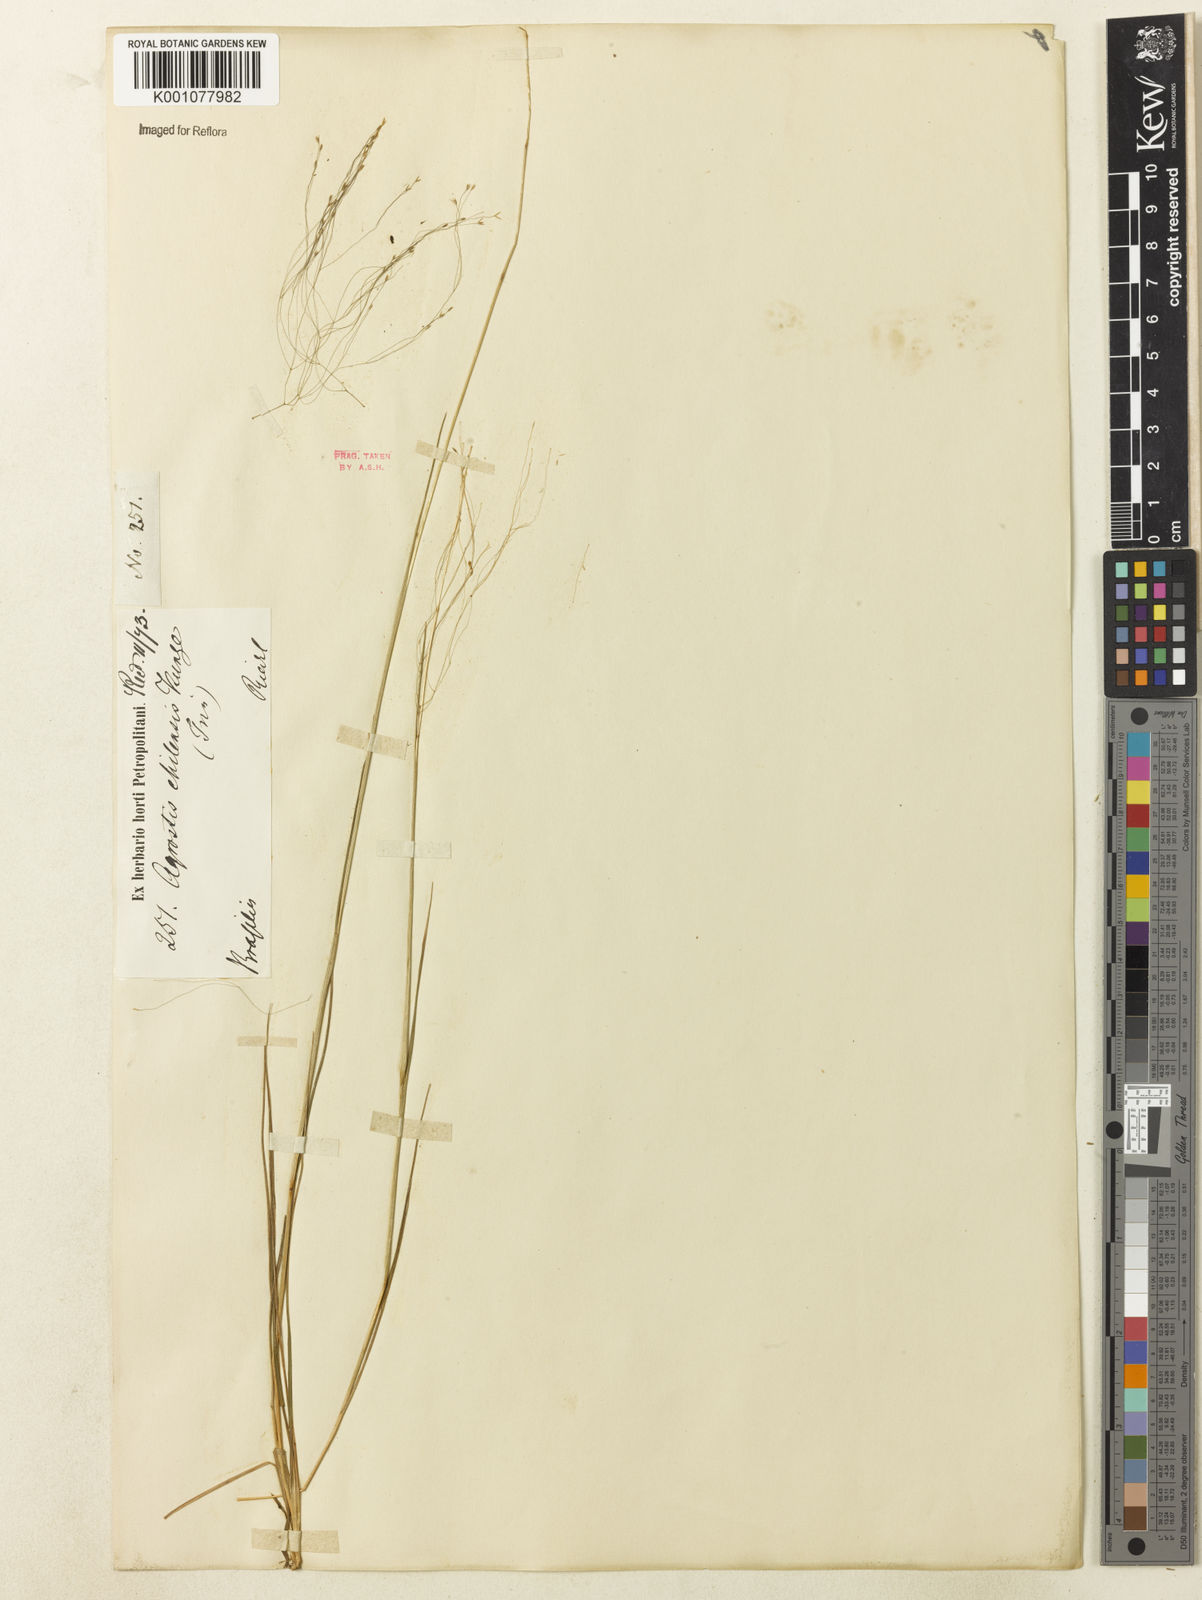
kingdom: Plantae
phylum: Tracheophyta
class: Liliopsida
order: Poales
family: Poaceae
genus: Agrostis
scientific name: Agrostis montevidensis
